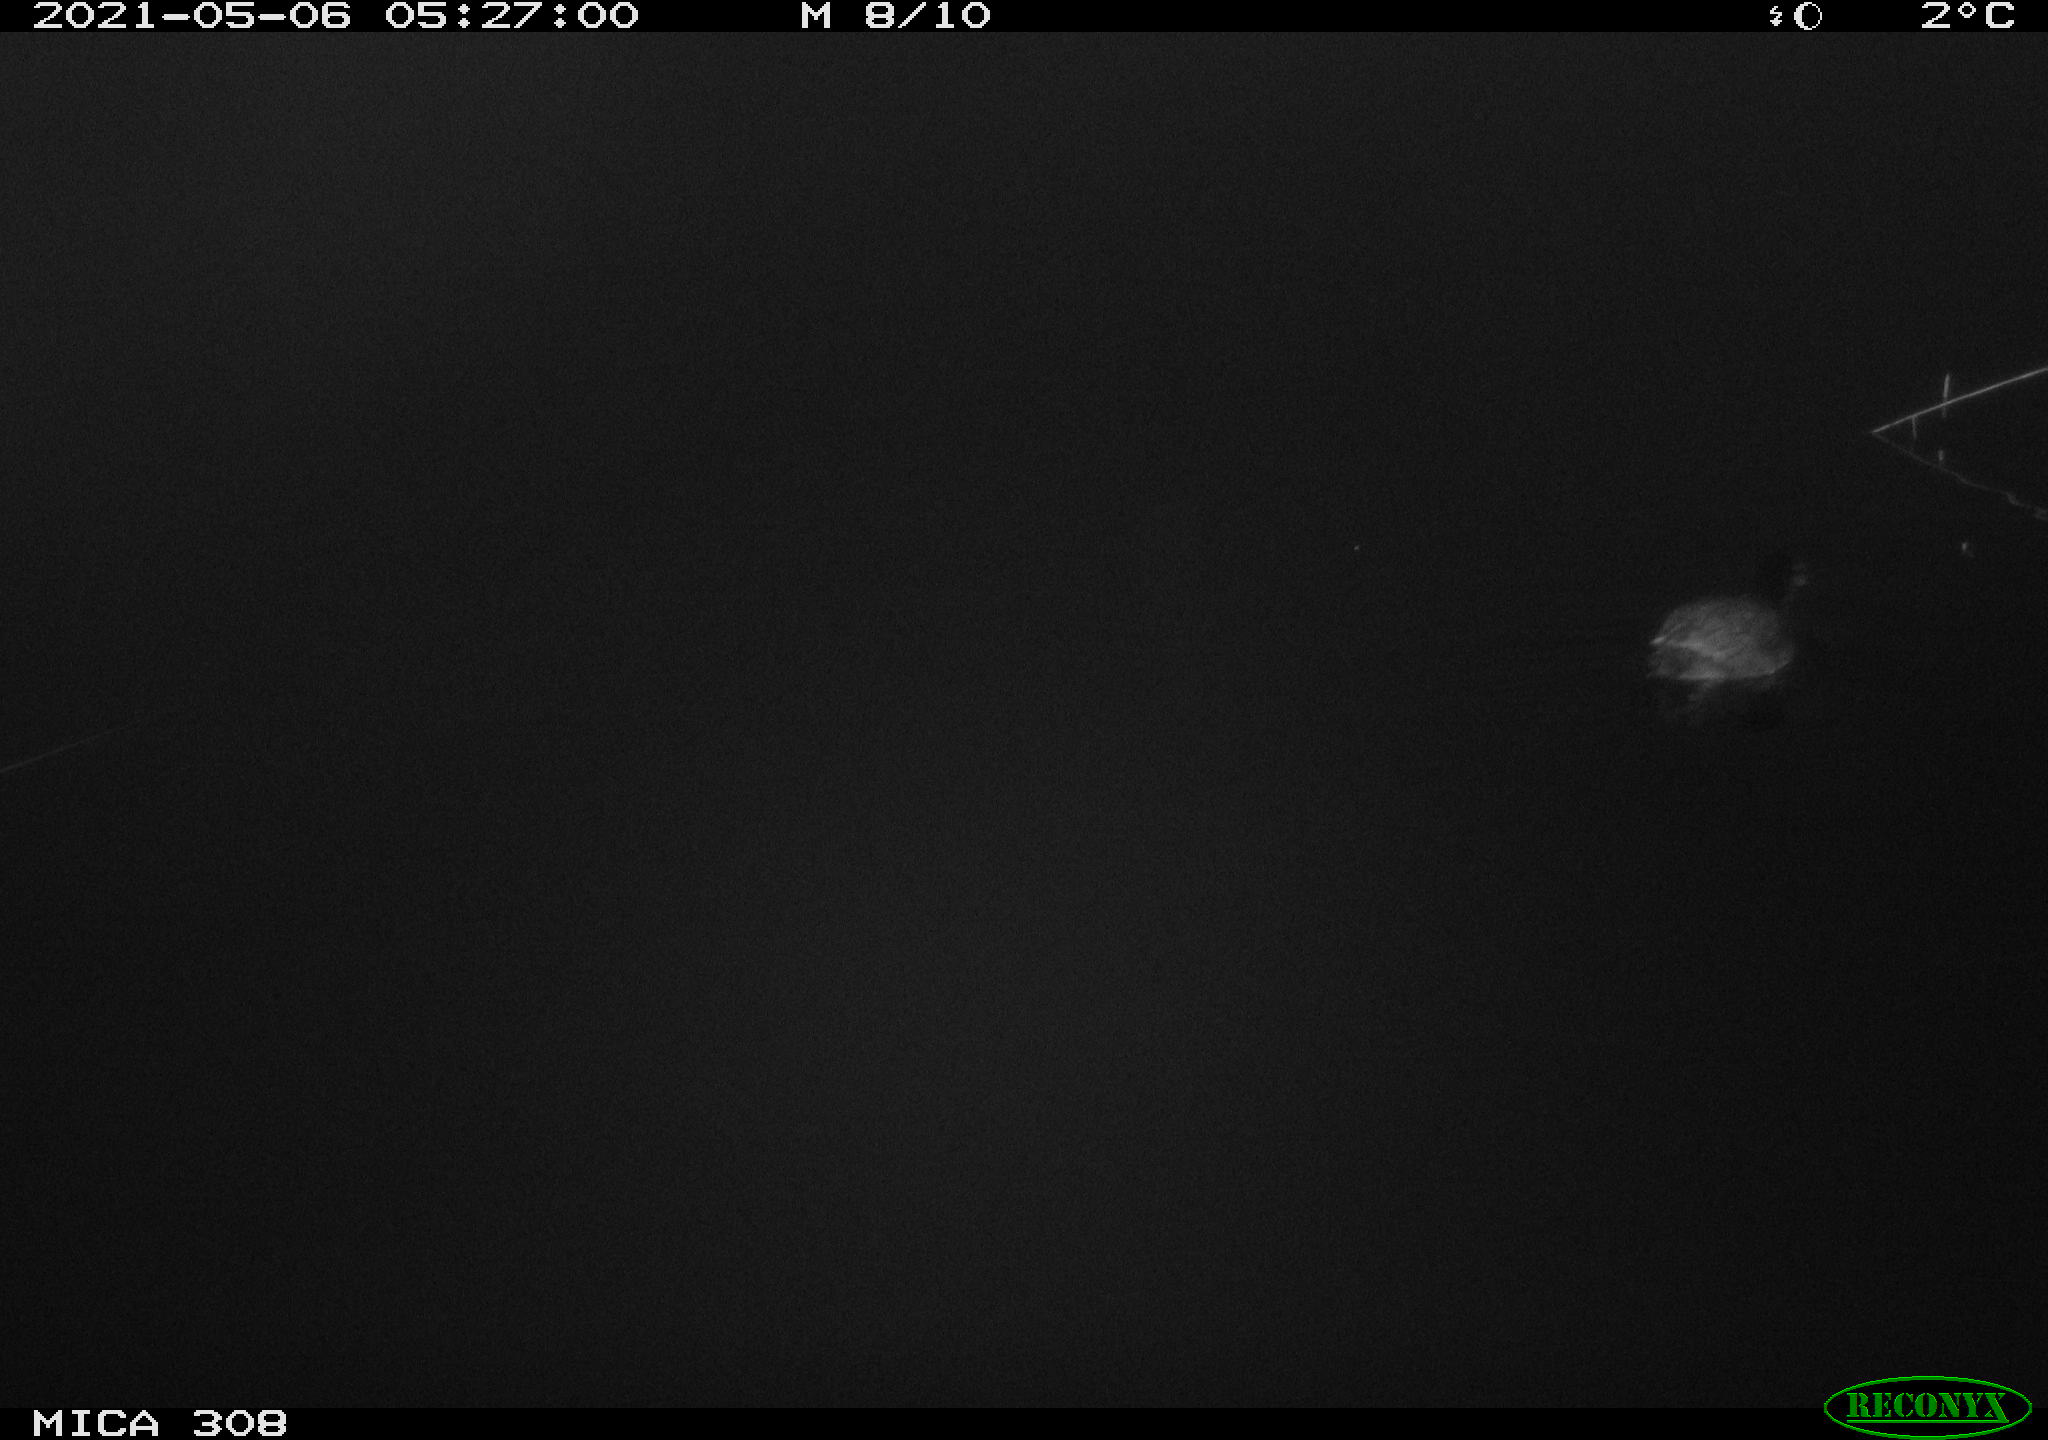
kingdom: Animalia
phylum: Chordata
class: Aves
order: Gruiformes
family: Rallidae
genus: Fulica
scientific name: Fulica atra
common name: Eurasian coot
